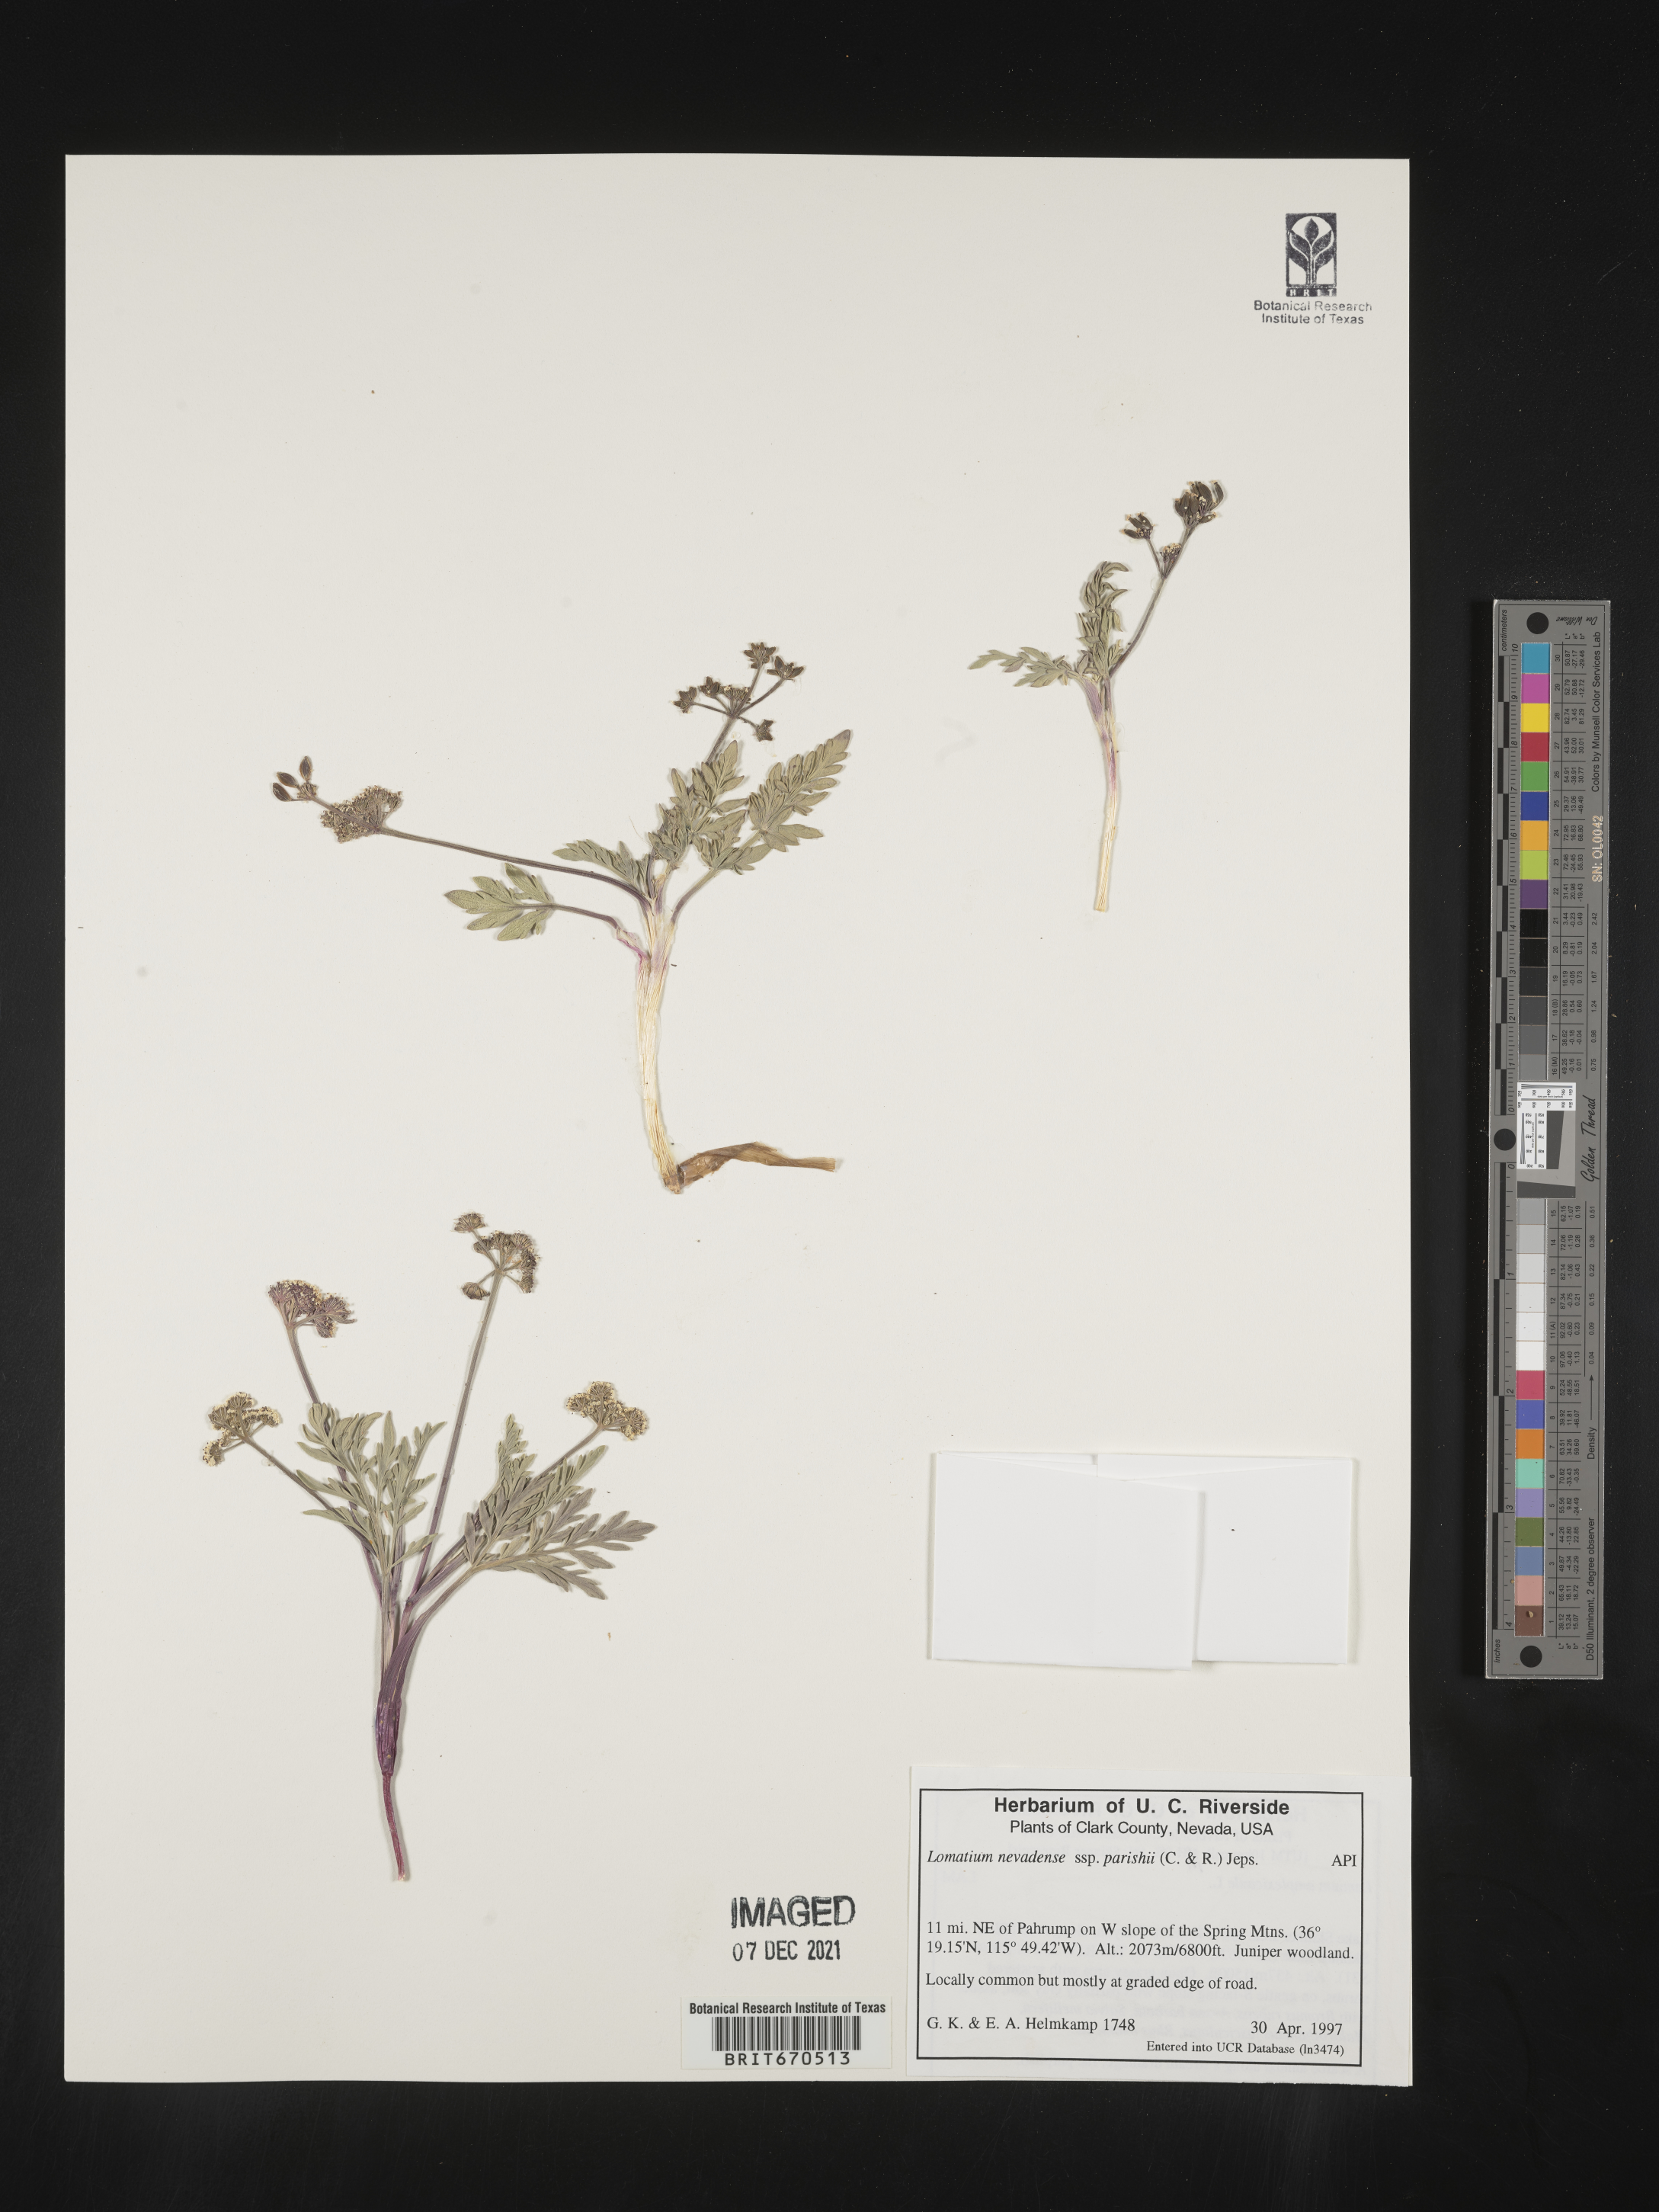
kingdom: Plantae
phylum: Tracheophyta
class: Magnoliopsida
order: Apiales
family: Apiaceae
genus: Lomatium
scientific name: Lomatium nevadense
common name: Nevada lomatium
